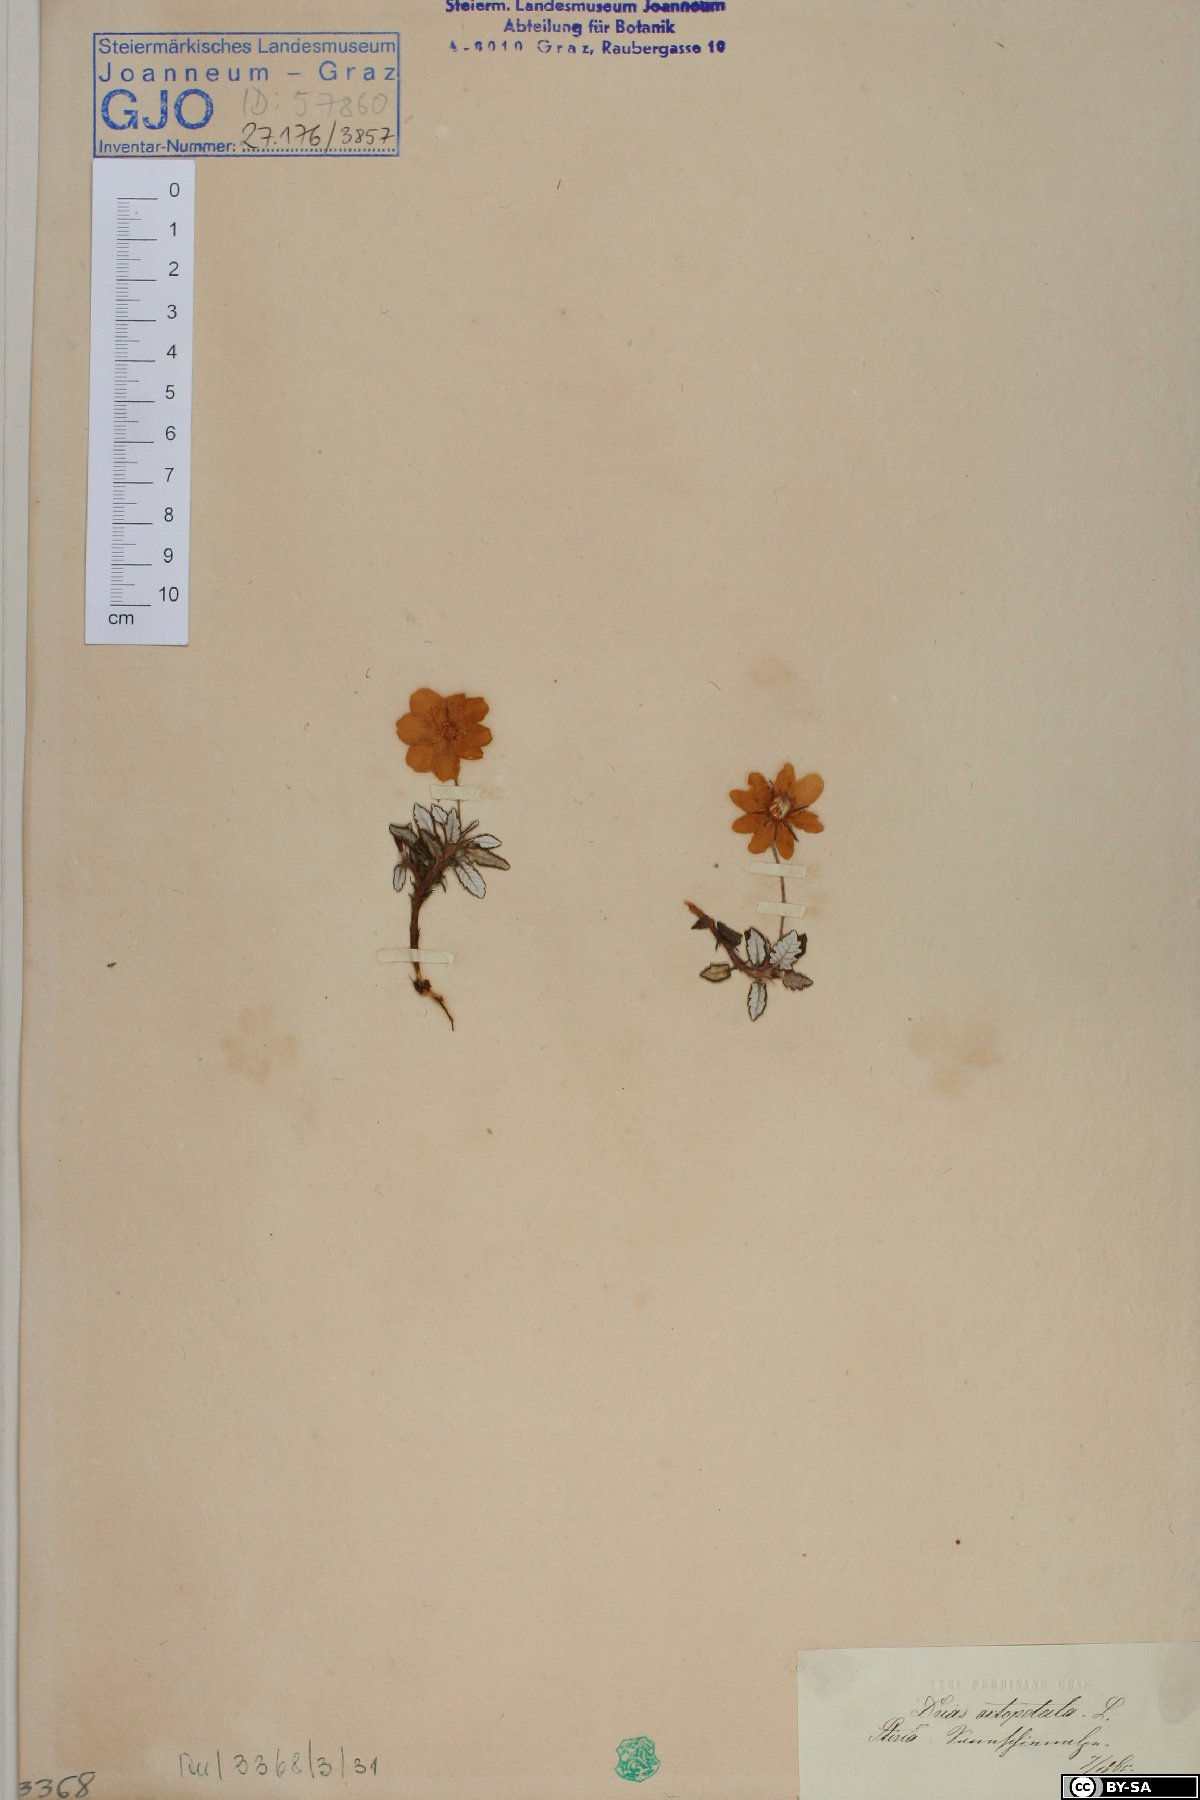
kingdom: Plantae
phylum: Tracheophyta
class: Magnoliopsida
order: Rosales
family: Rosaceae
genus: Dryas
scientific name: Dryas octopetala
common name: Eight-petal mountain-avens
